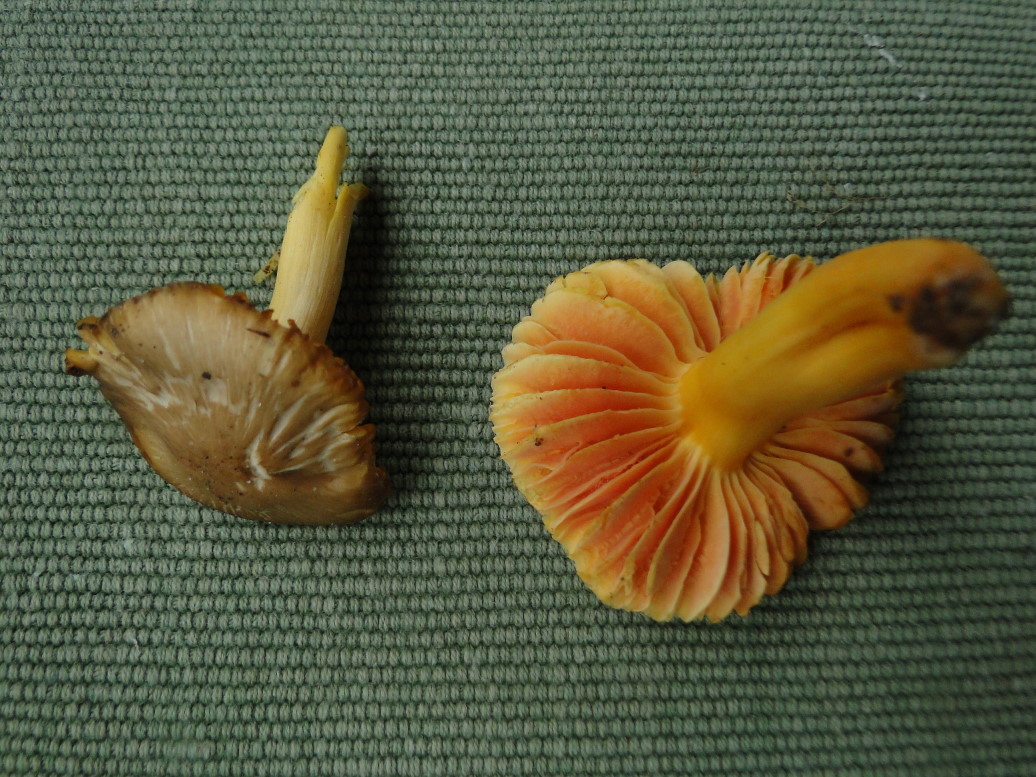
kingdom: Fungi
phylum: Basidiomycota
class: Agaricomycetes
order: Agaricales
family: Hygrophoraceae
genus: Hygrocybe
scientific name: Hygrocybe quieta
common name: tæge-vokshat
